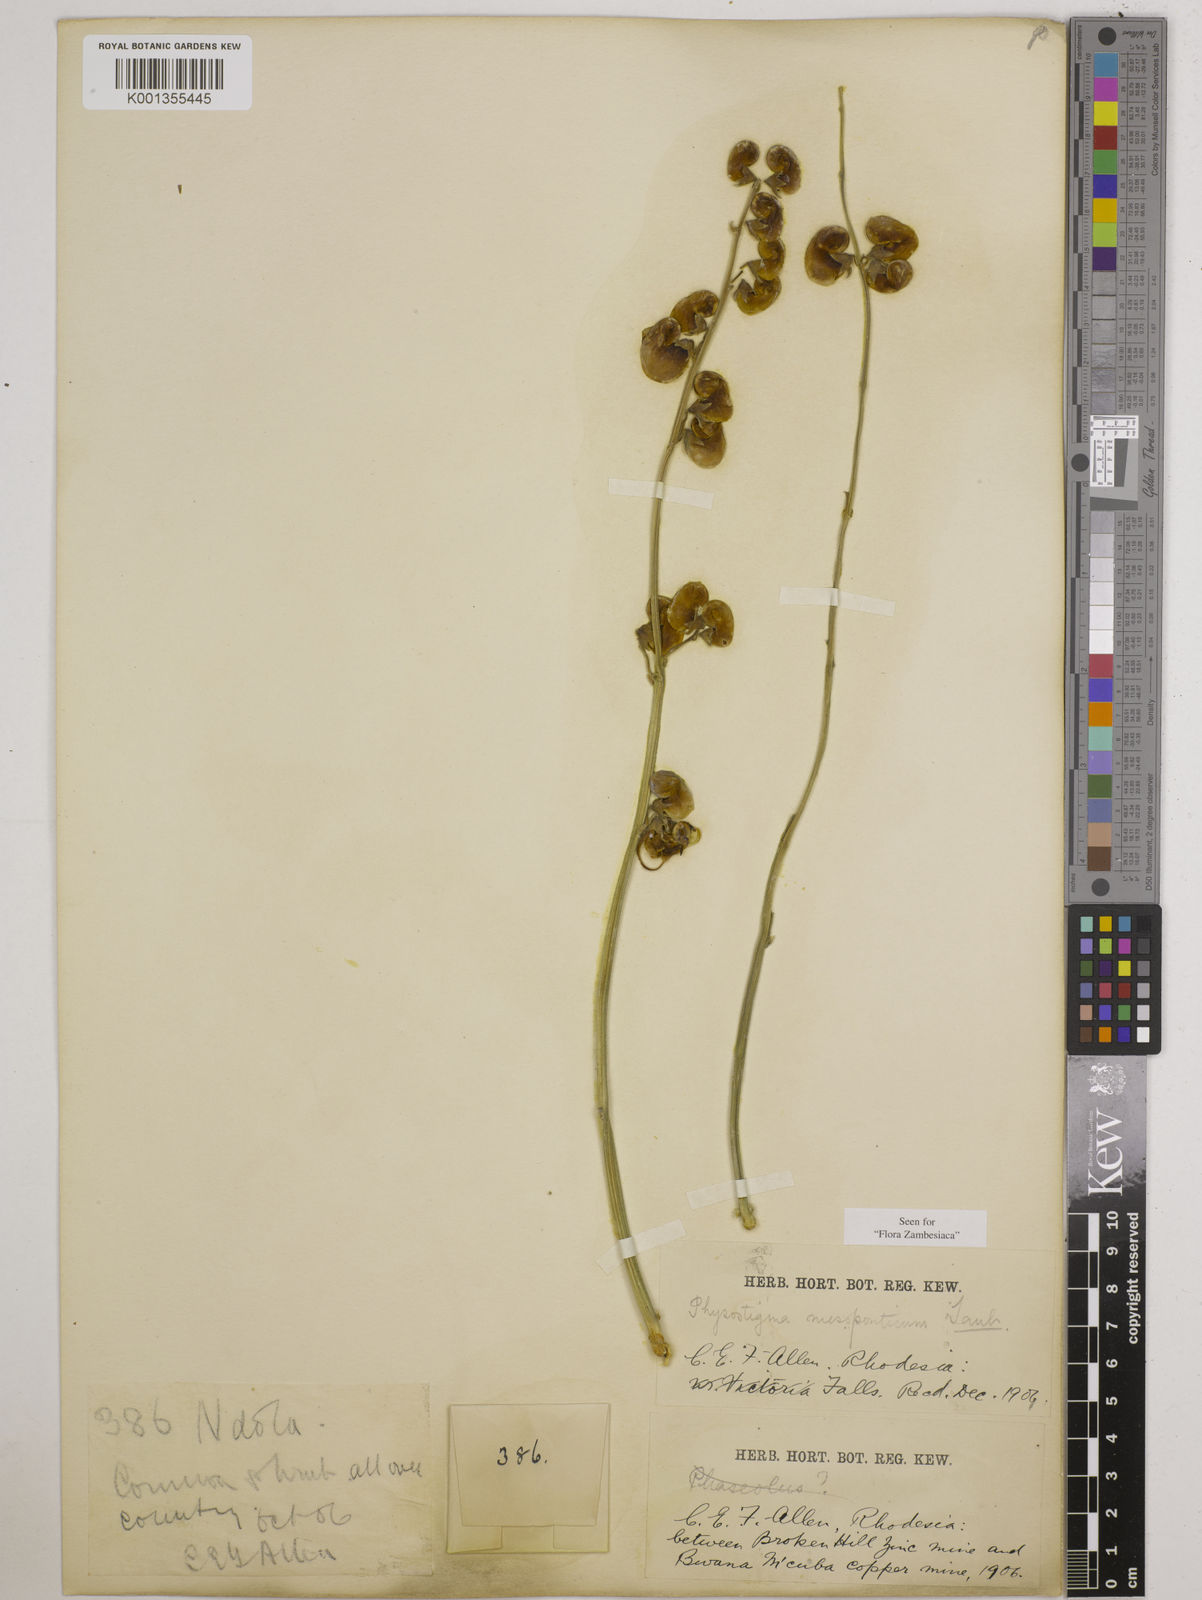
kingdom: Plantae
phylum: Tracheophyta
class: Magnoliopsida
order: Fabales
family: Fabaceae
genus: Physostigma
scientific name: Physostigma mesoponticum
